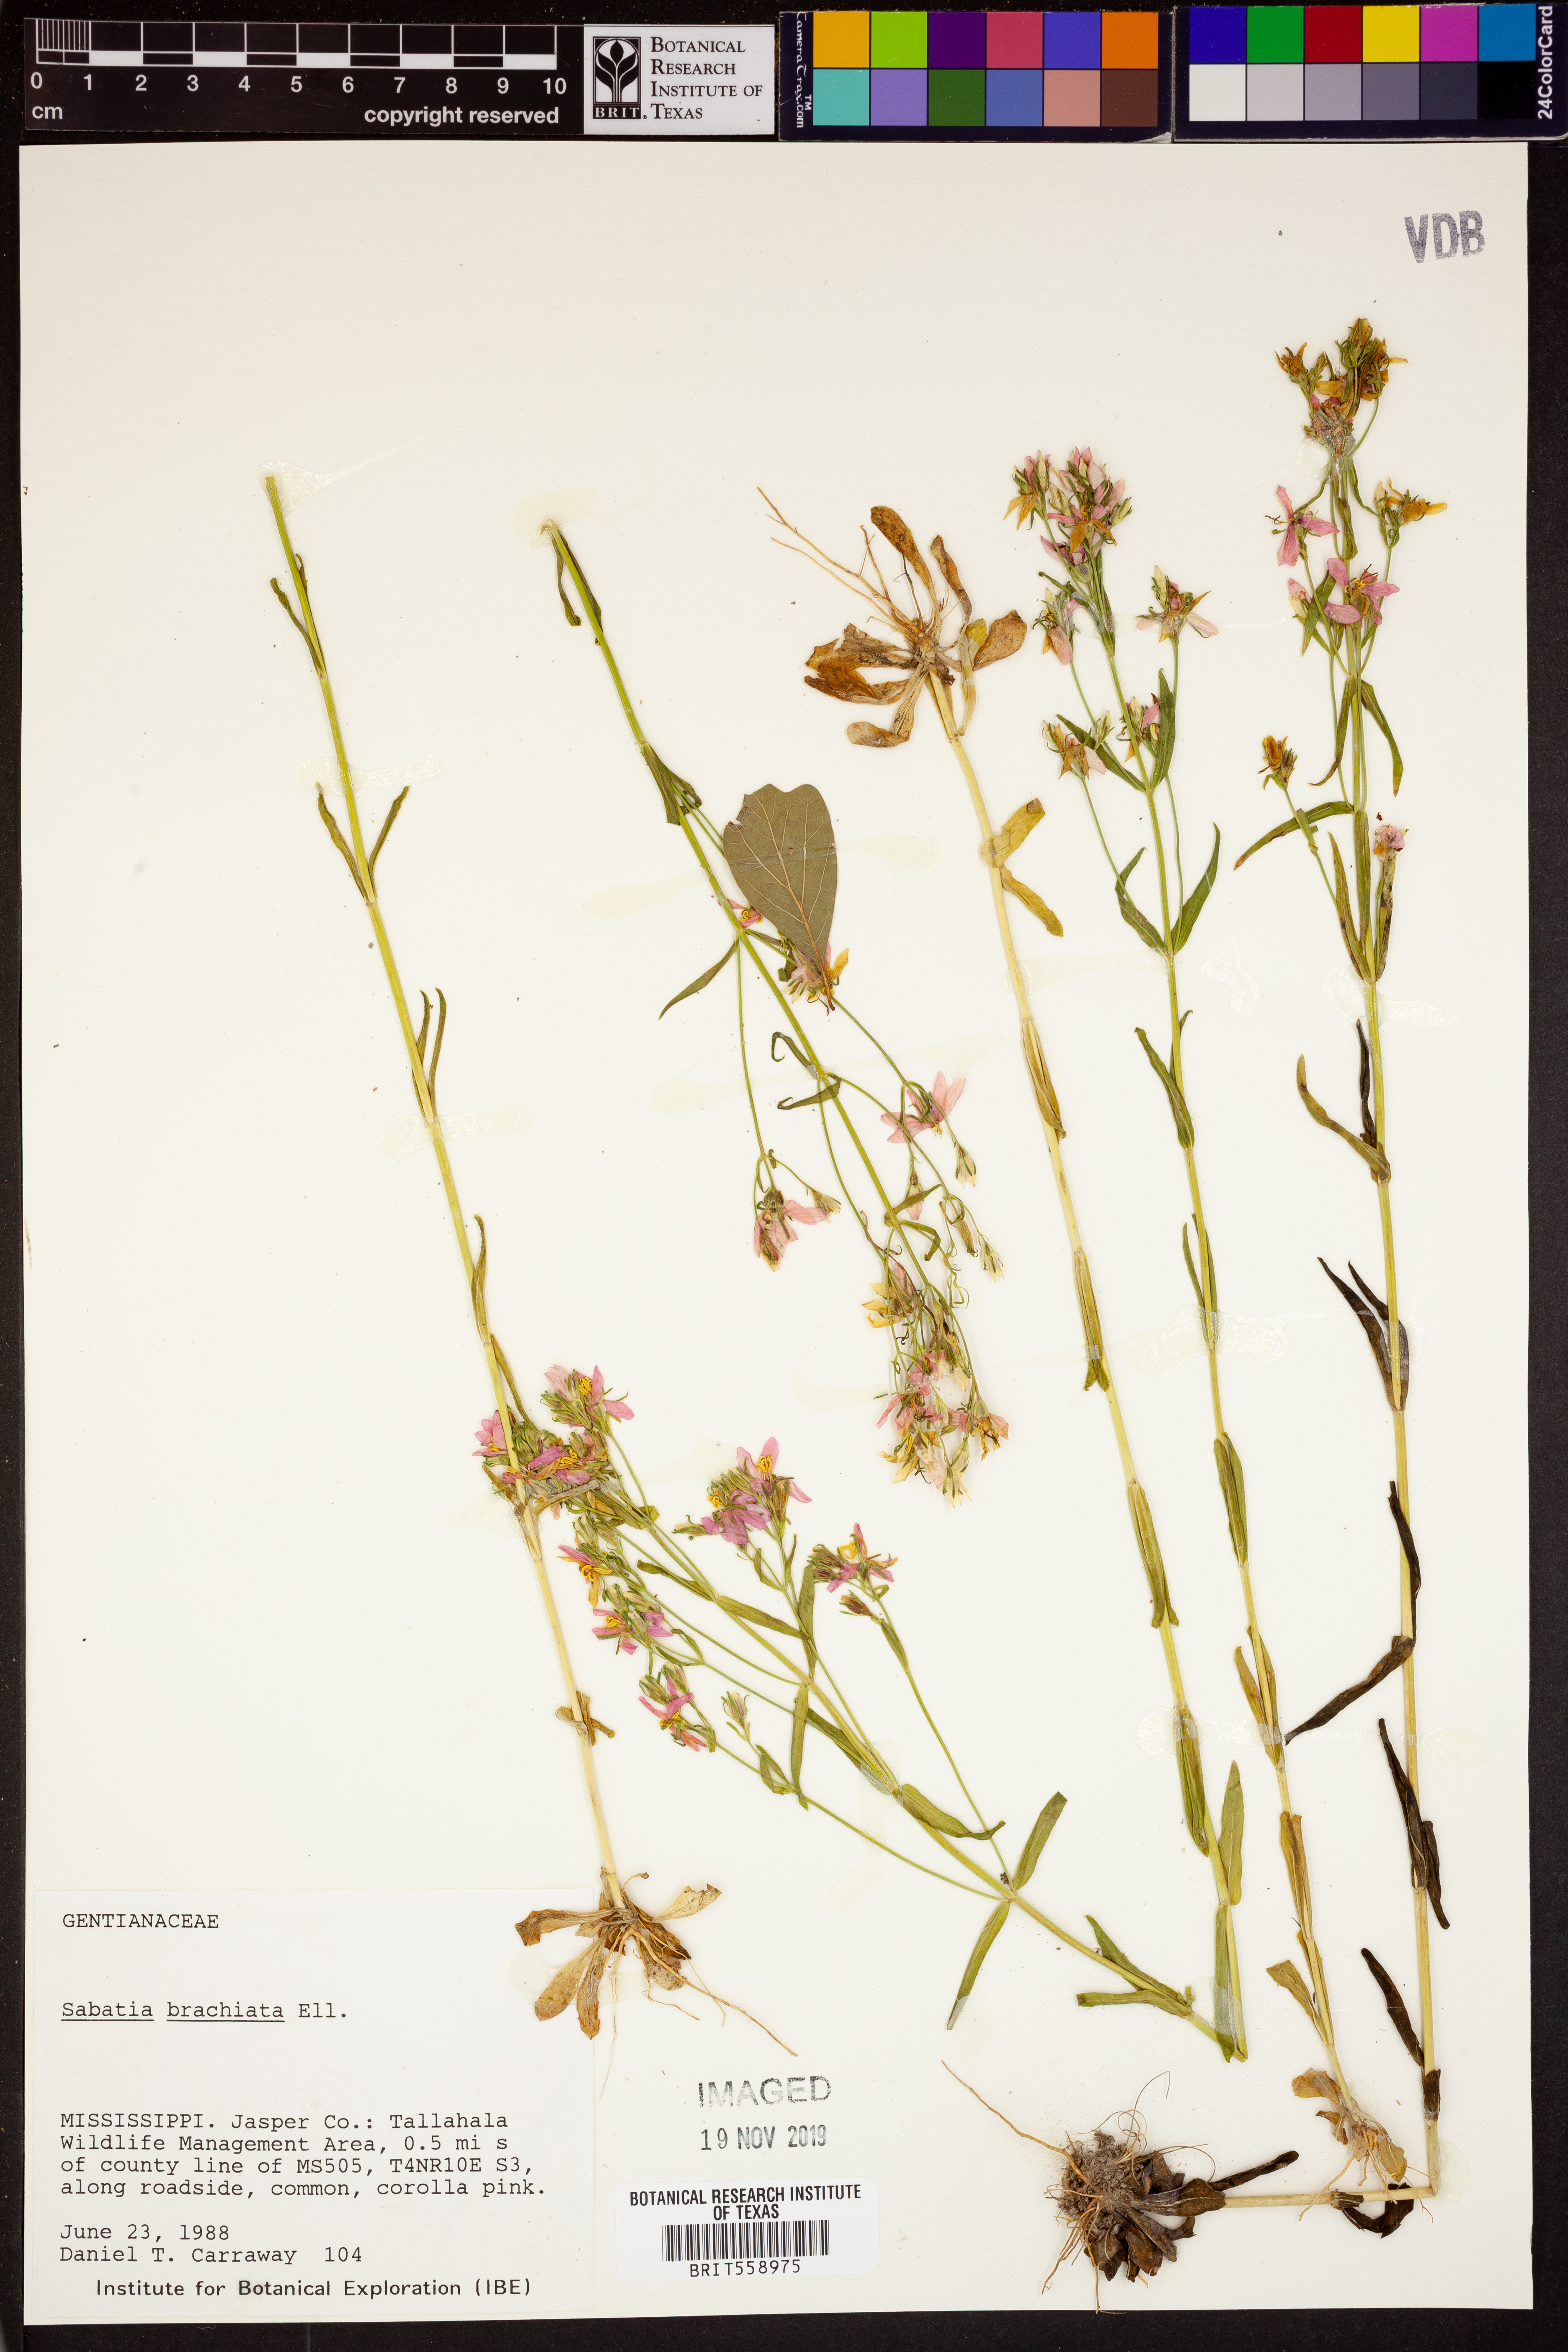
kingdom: Plantae
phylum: Tracheophyta
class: Magnoliopsida
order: Gentianales
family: Gentianaceae
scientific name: Gentianaceae
